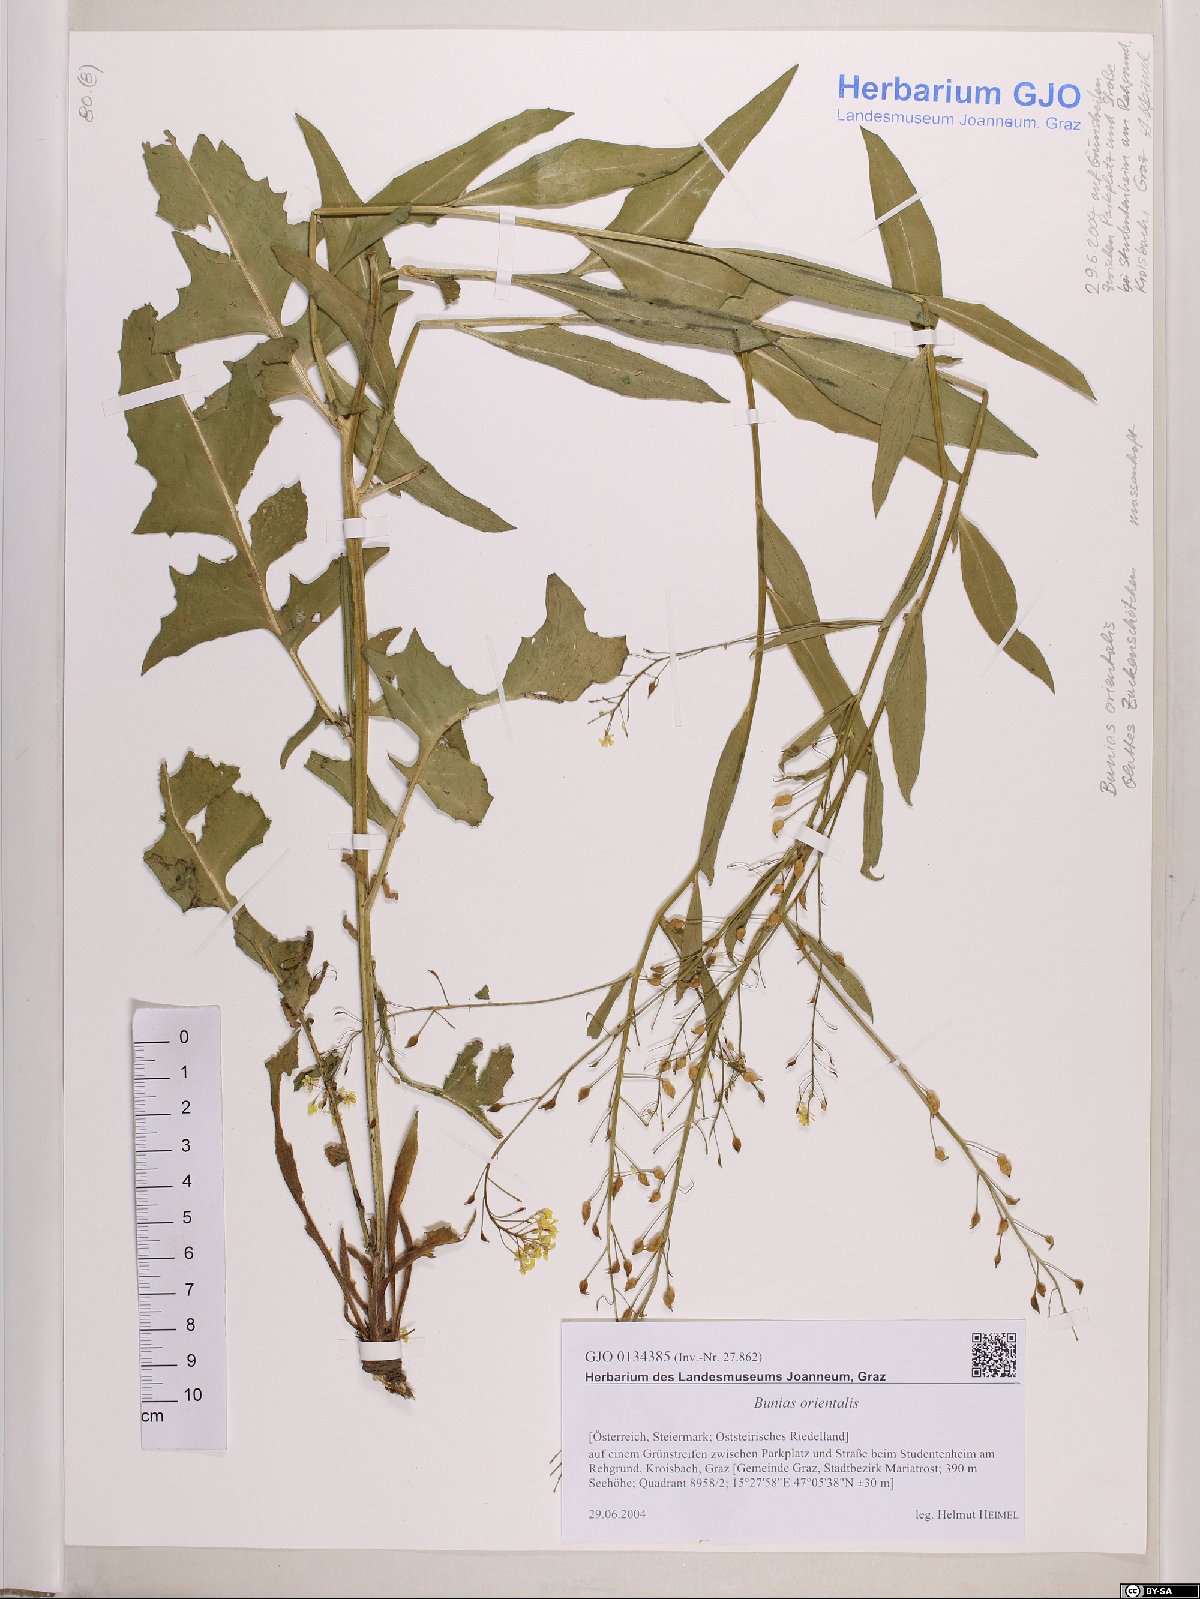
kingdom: Plantae
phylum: Tracheophyta
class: Magnoliopsida
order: Brassicales
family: Brassicaceae
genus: Bunias
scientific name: Bunias orientalis
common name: Warty-cabbage
